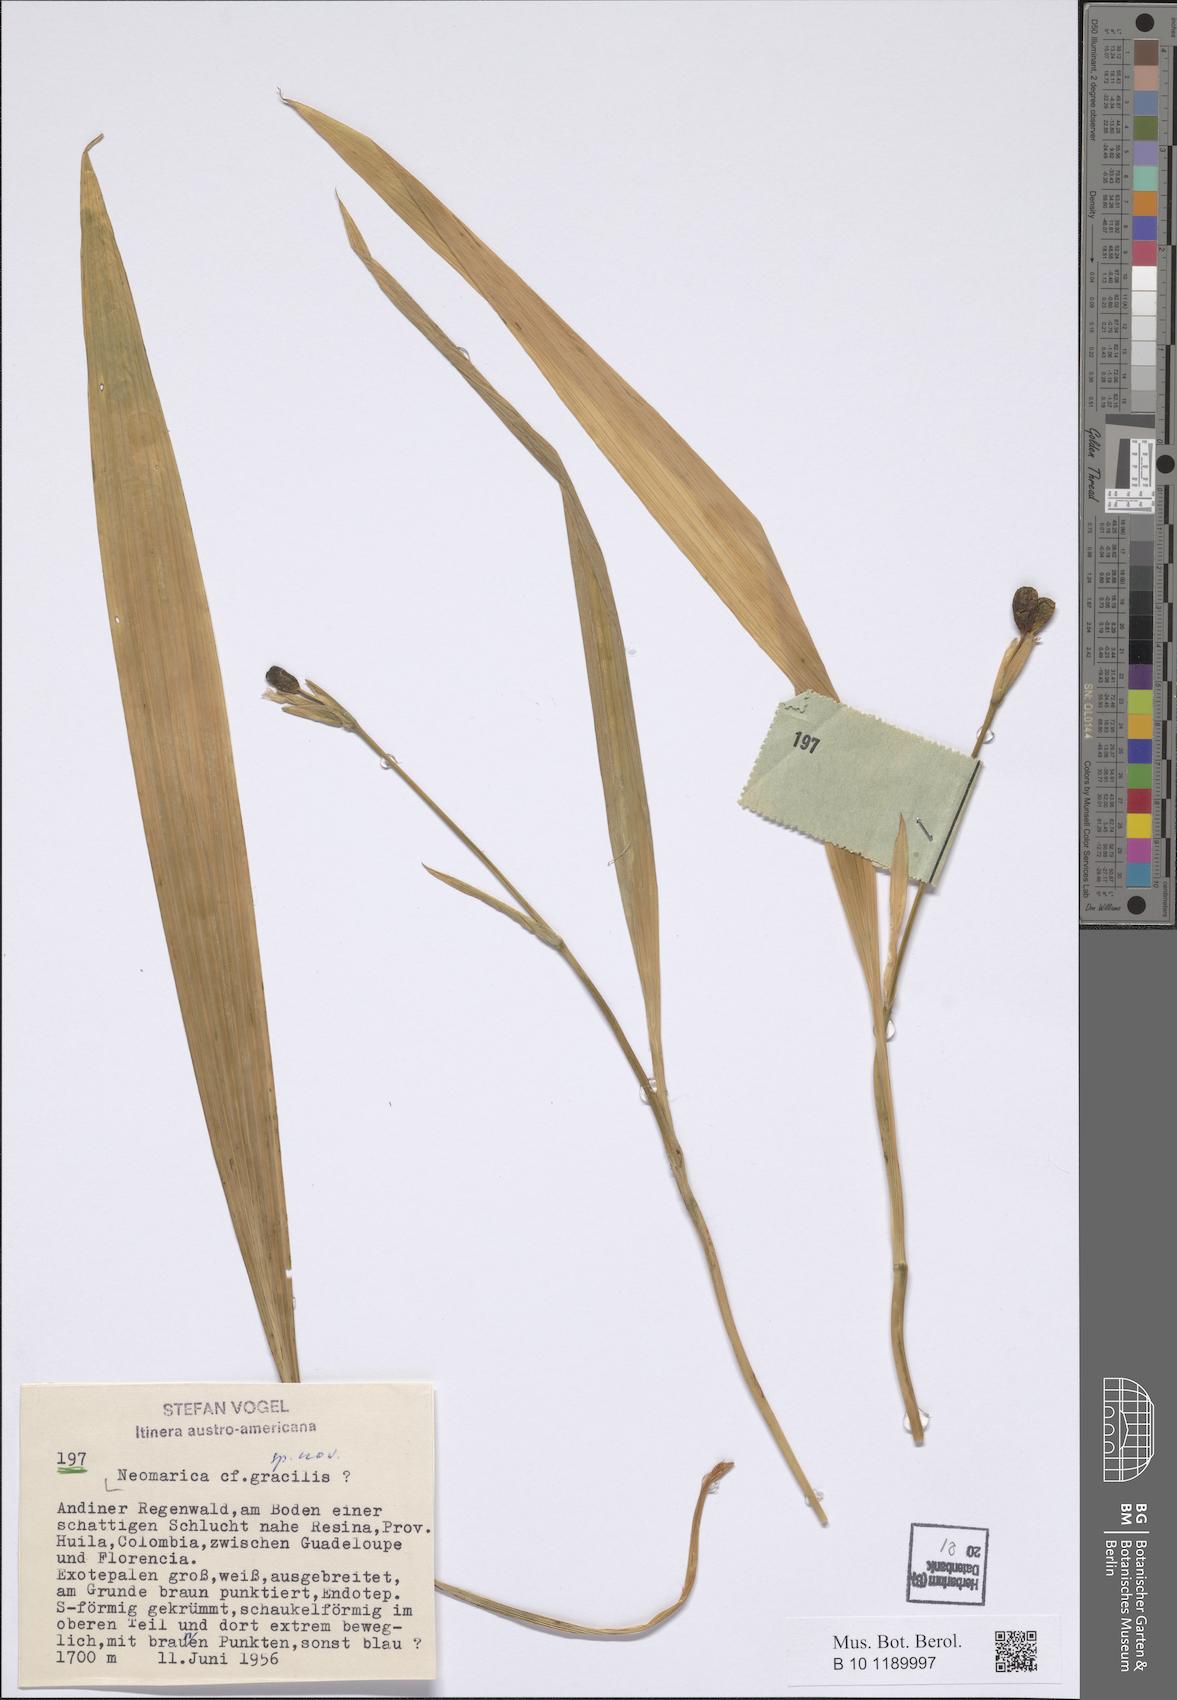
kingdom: Plantae
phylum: Tracheophyta
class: Liliopsida
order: Asparagales
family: Iridaceae
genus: Trimezia
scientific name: Trimezia gracilis
